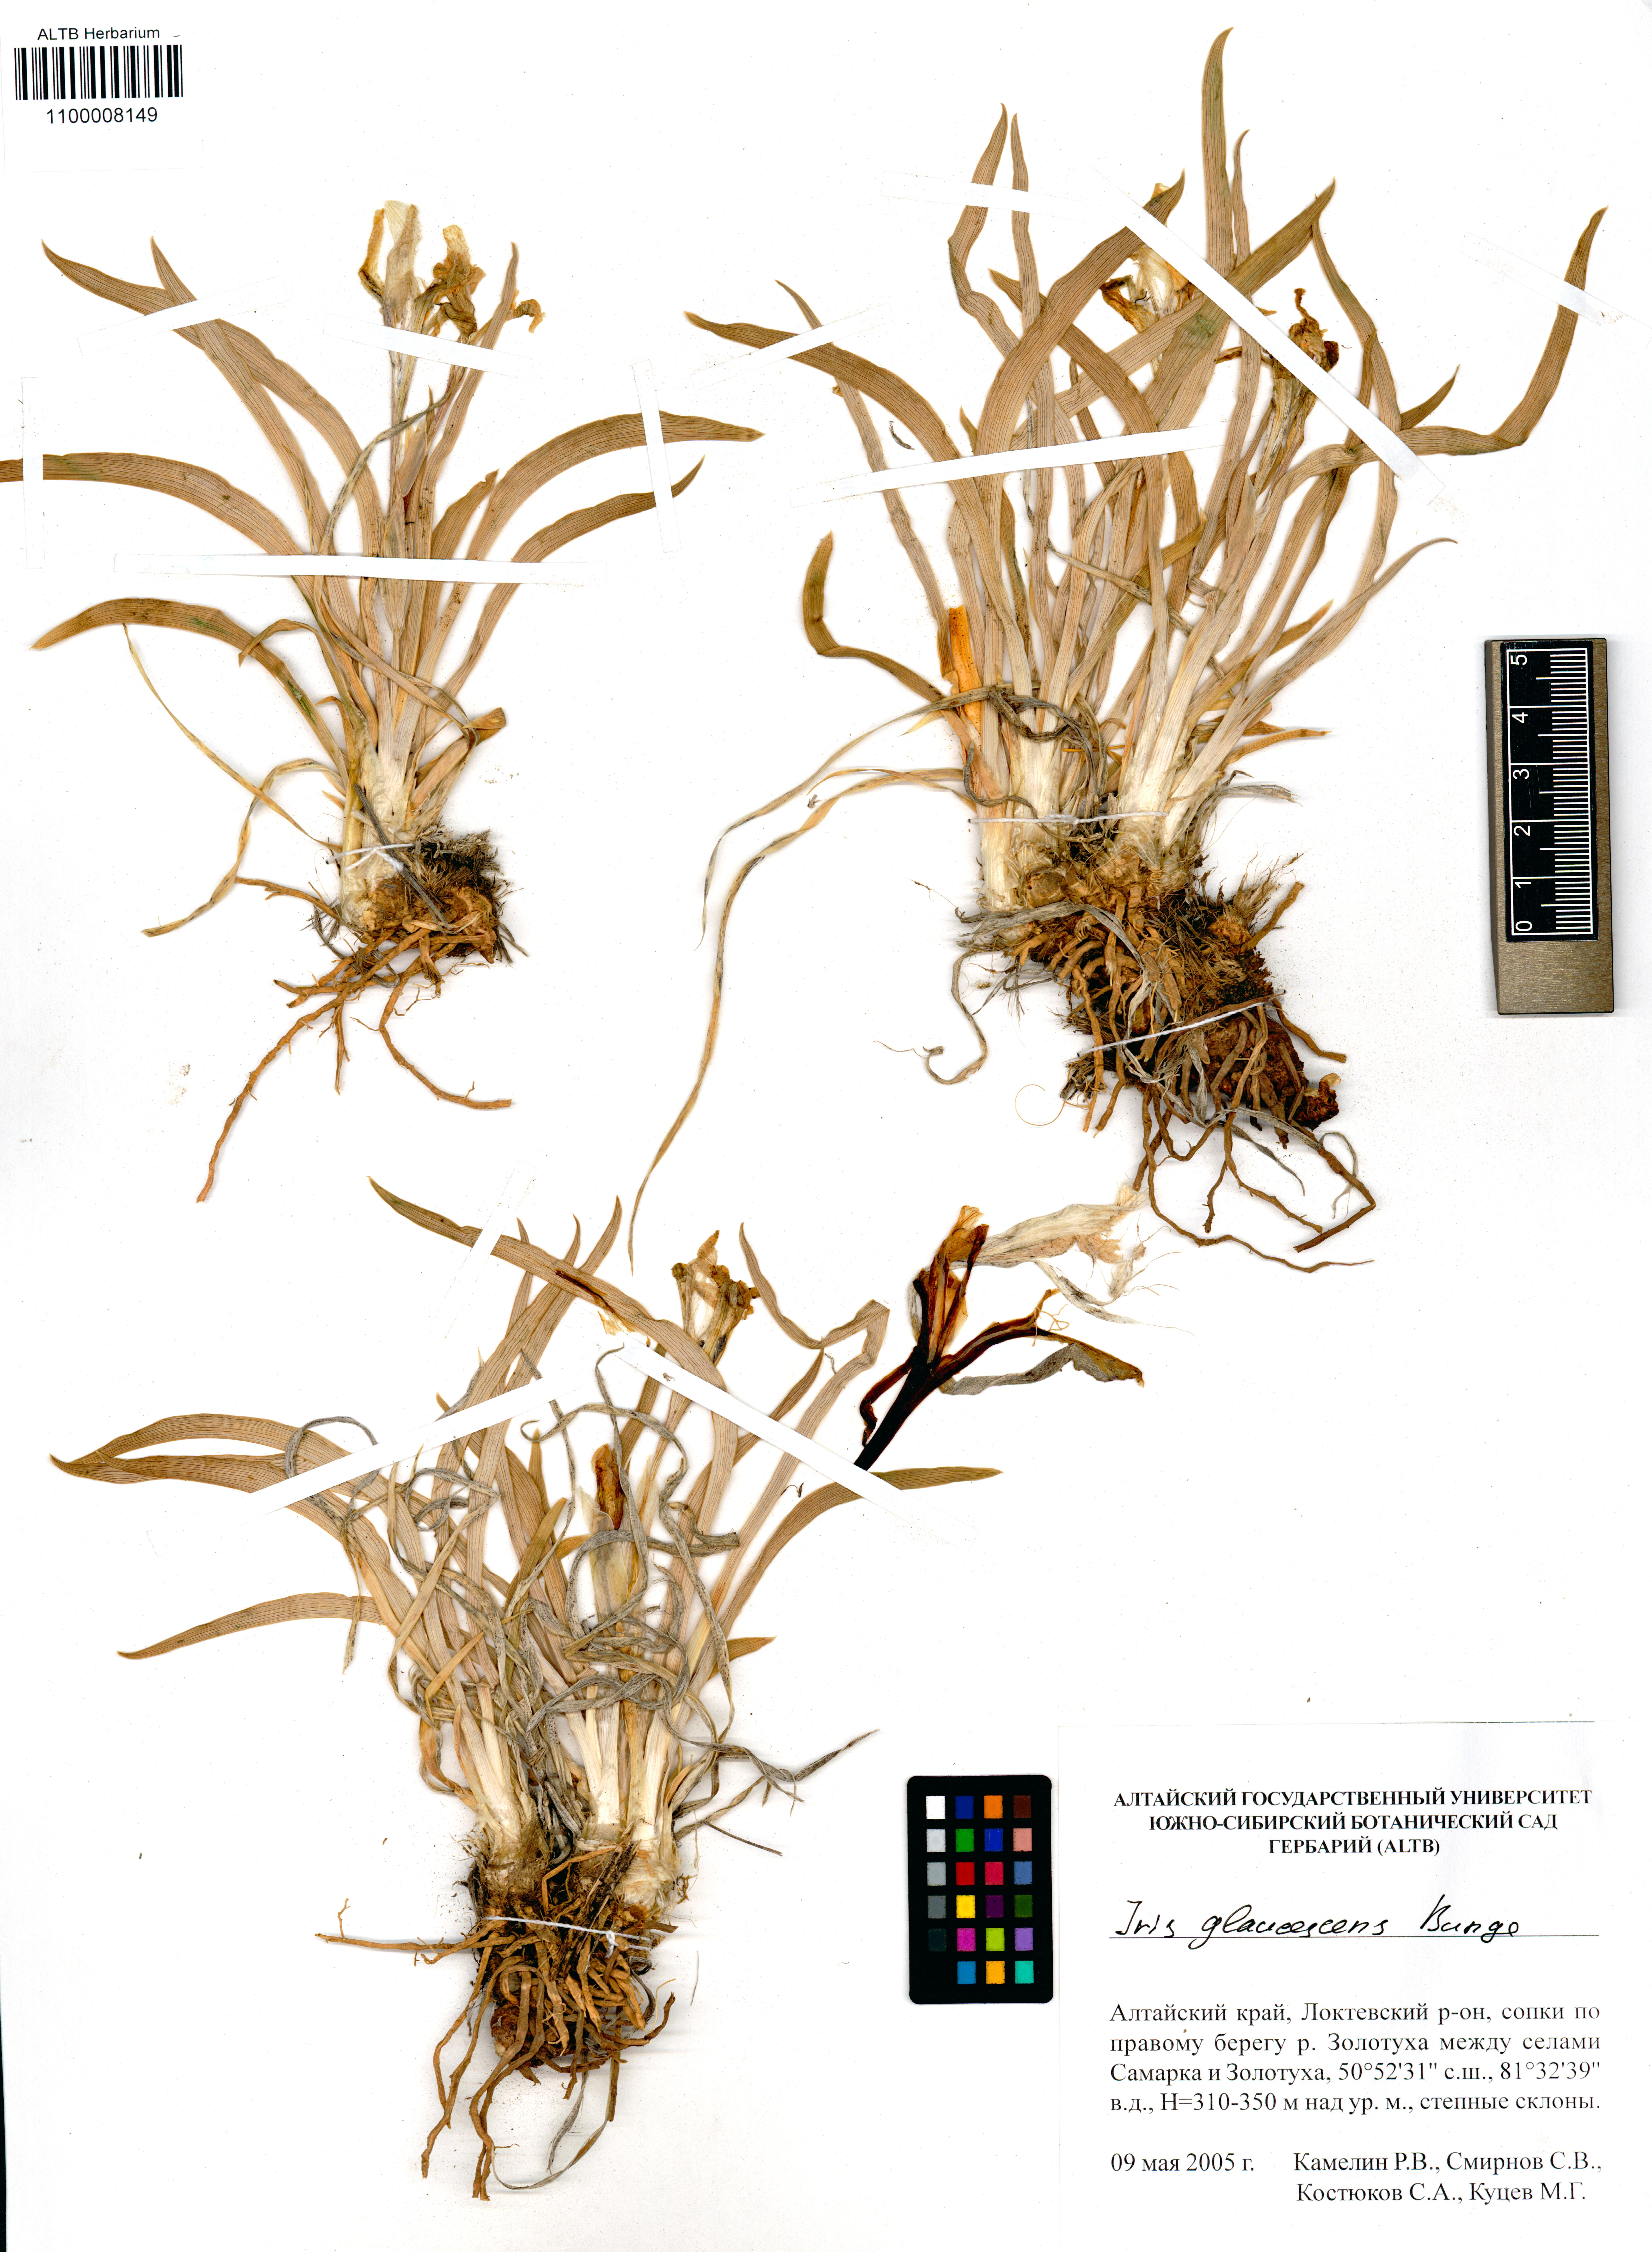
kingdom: Plantae
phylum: Tracheophyta
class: Liliopsida
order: Asparagales
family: Iridaceae
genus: Iris
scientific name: Iris glaucescens
